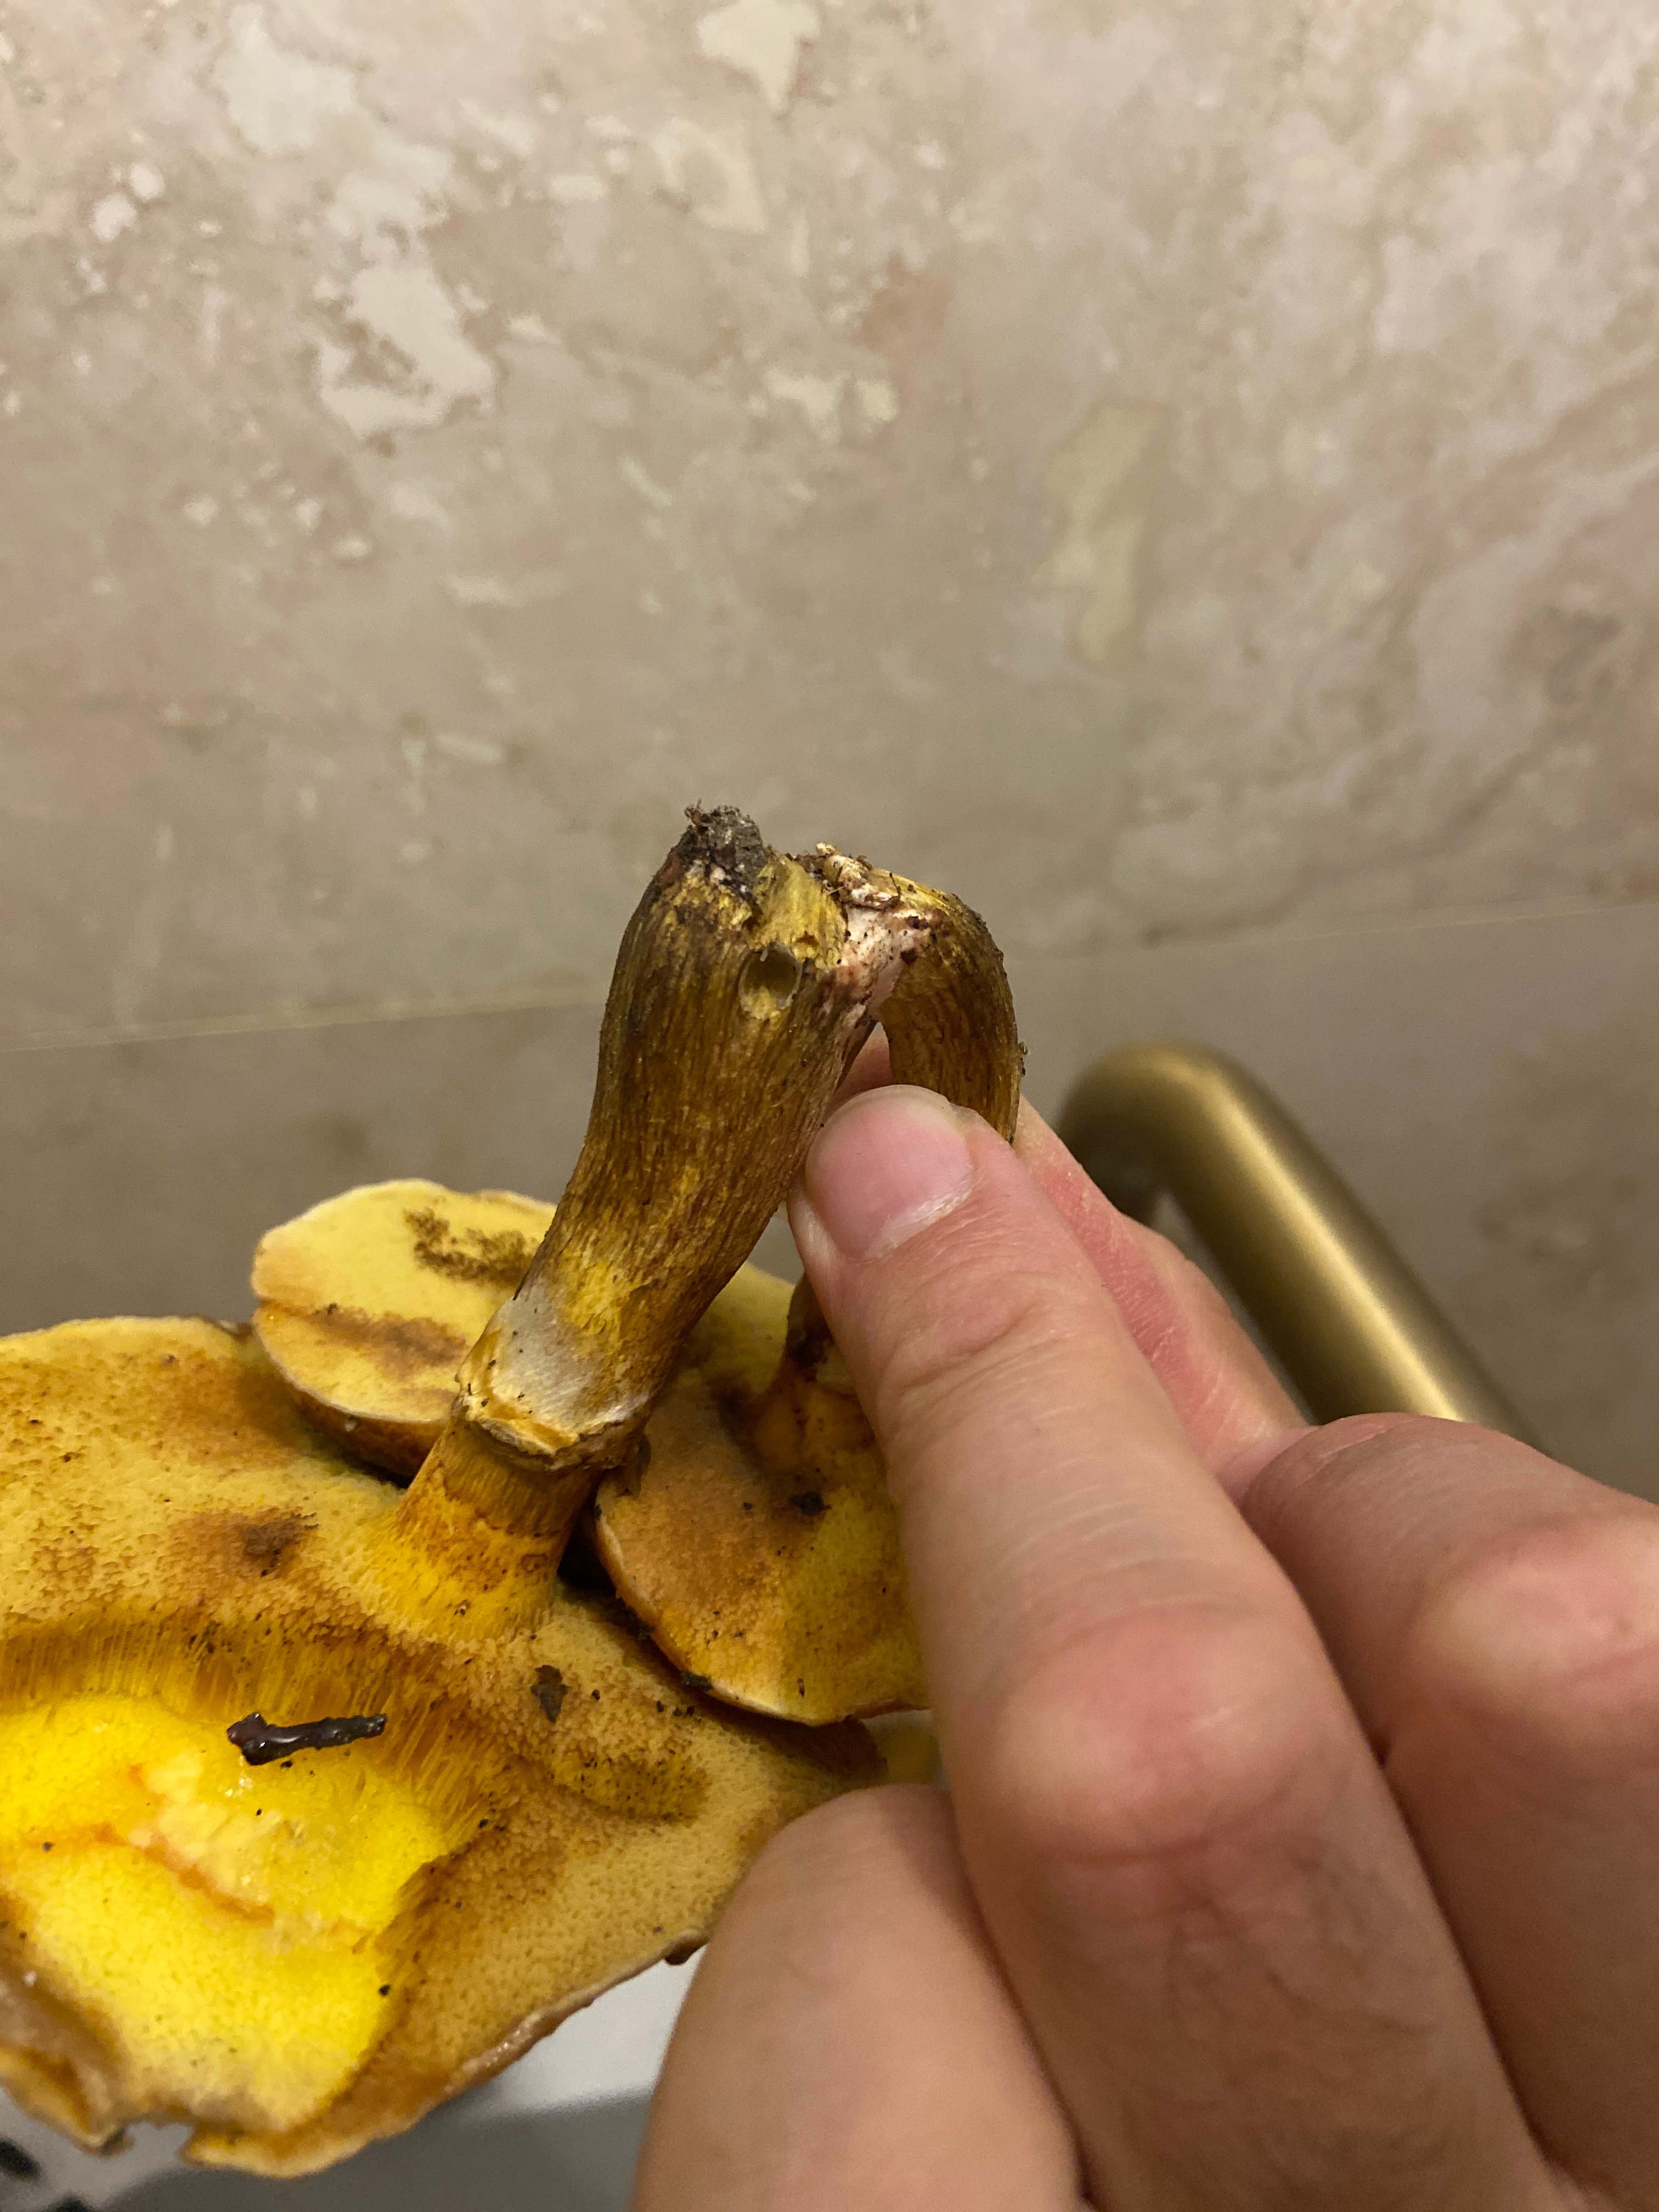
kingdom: Fungi
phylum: Basidiomycota
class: Agaricomycetes
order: Boletales
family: Suillaceae
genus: Suillus
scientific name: Suillus grevillei
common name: lærke-slimrørhat
